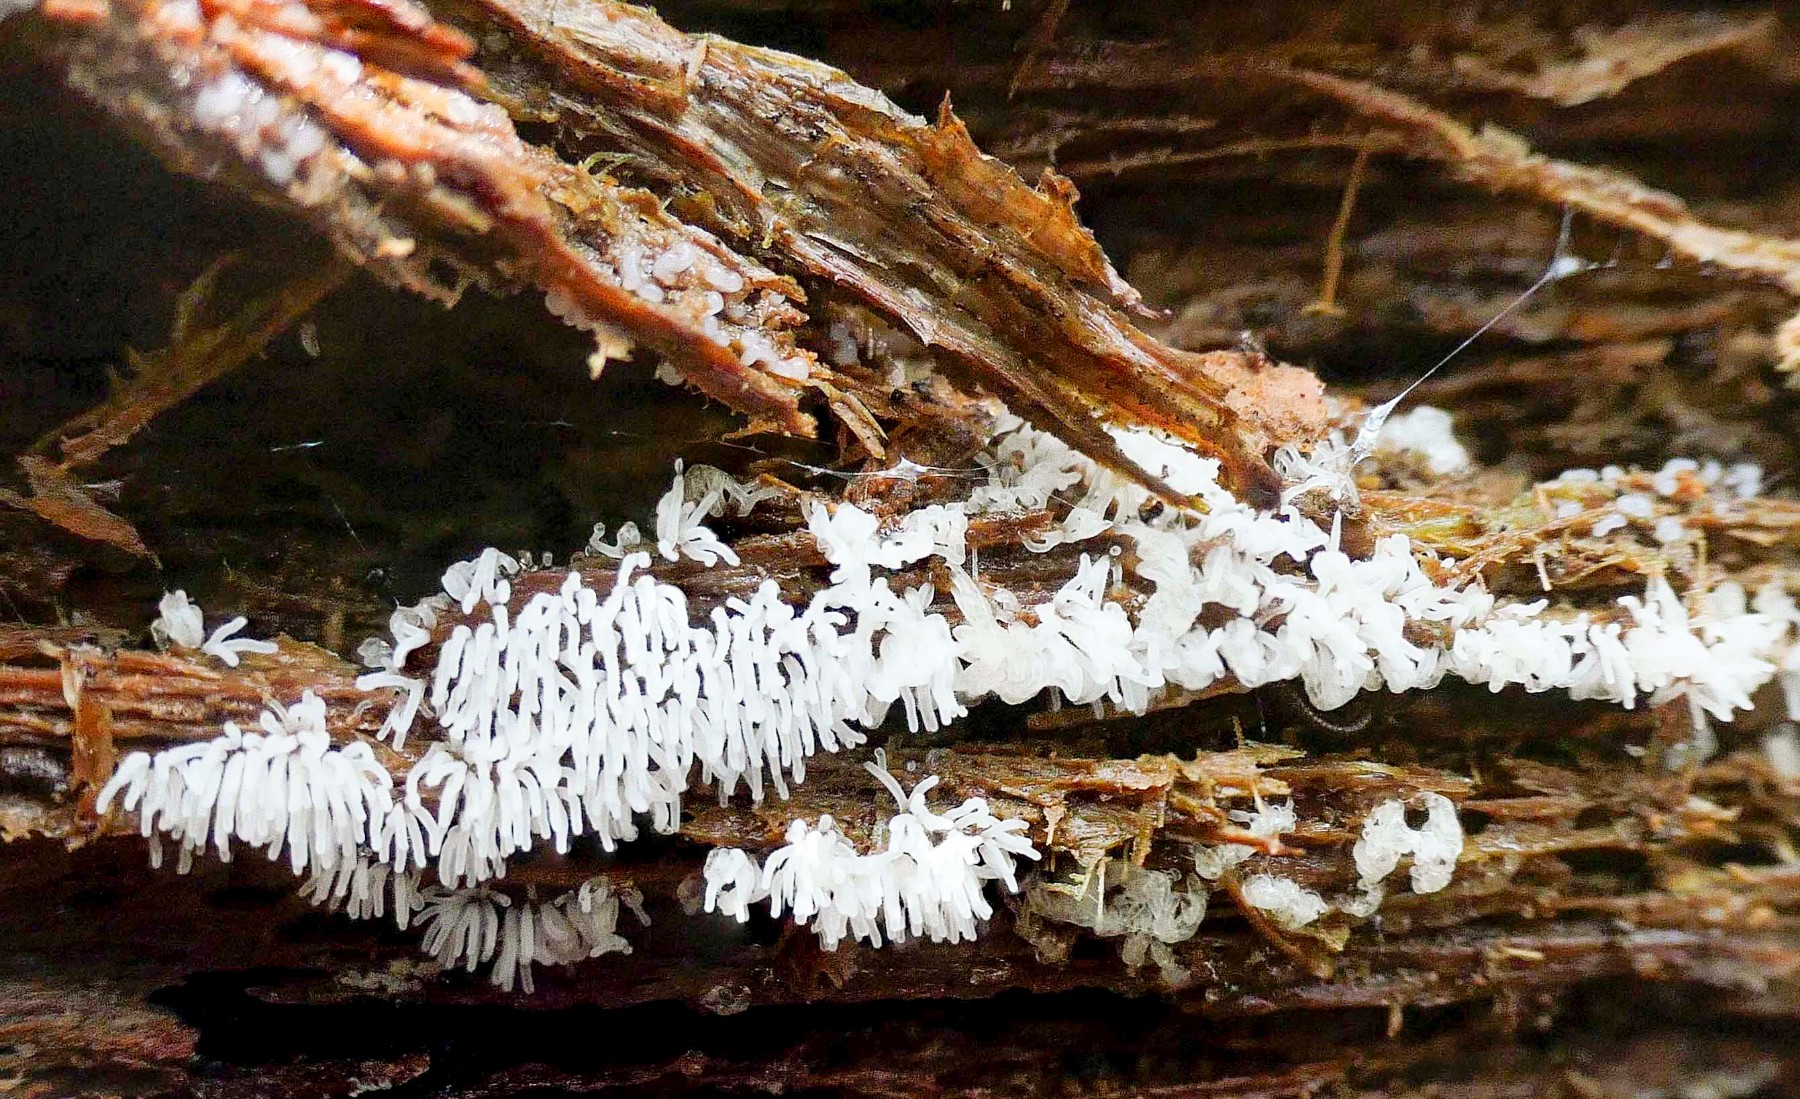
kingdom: Protozoa
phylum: Mycetozoa
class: Protosteliomycetes
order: Ceratiomyxales
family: Ceratiomyxaceae
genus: Ceratiomyxa
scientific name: Ceratiomyxa fruticulosa
